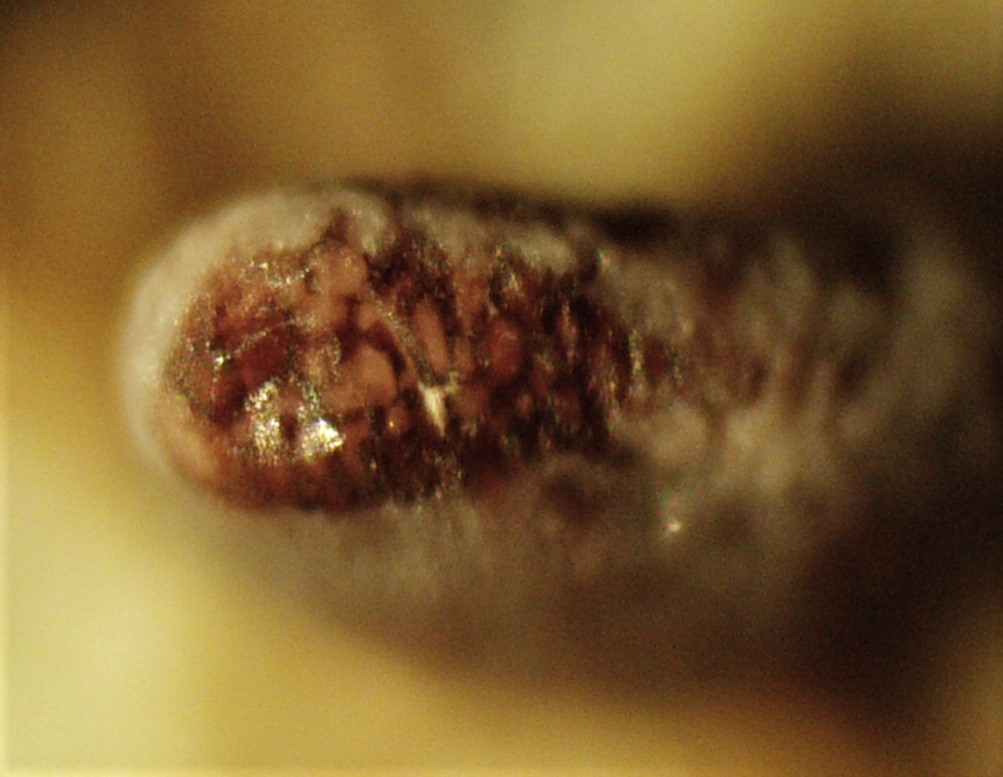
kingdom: Protozoa
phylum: Mycetozoa
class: Myxomycetes
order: Physarales
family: Physaraceae
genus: Physarum
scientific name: Physarum
